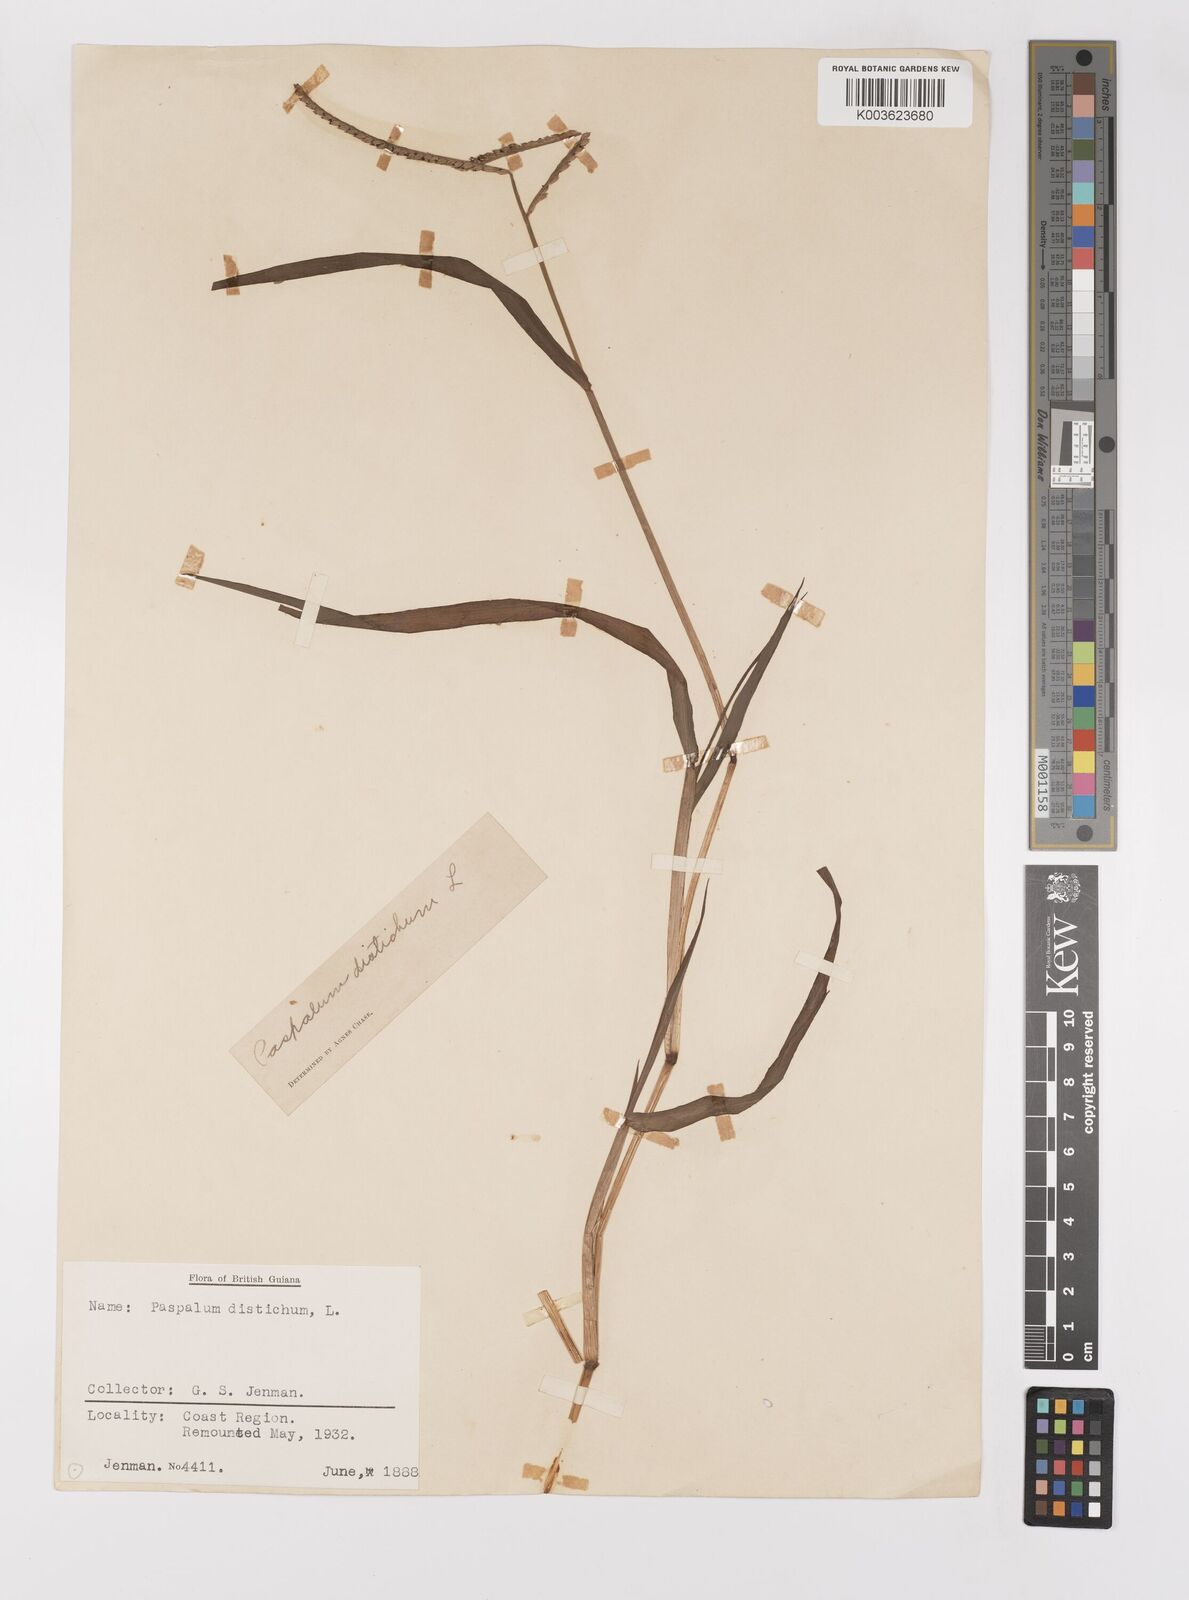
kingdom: Plantae
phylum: Tracheophyta
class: Liliopsida
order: Poales
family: Poaceae
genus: Paspalum
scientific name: Paspalum distichum
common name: Knotgrass
